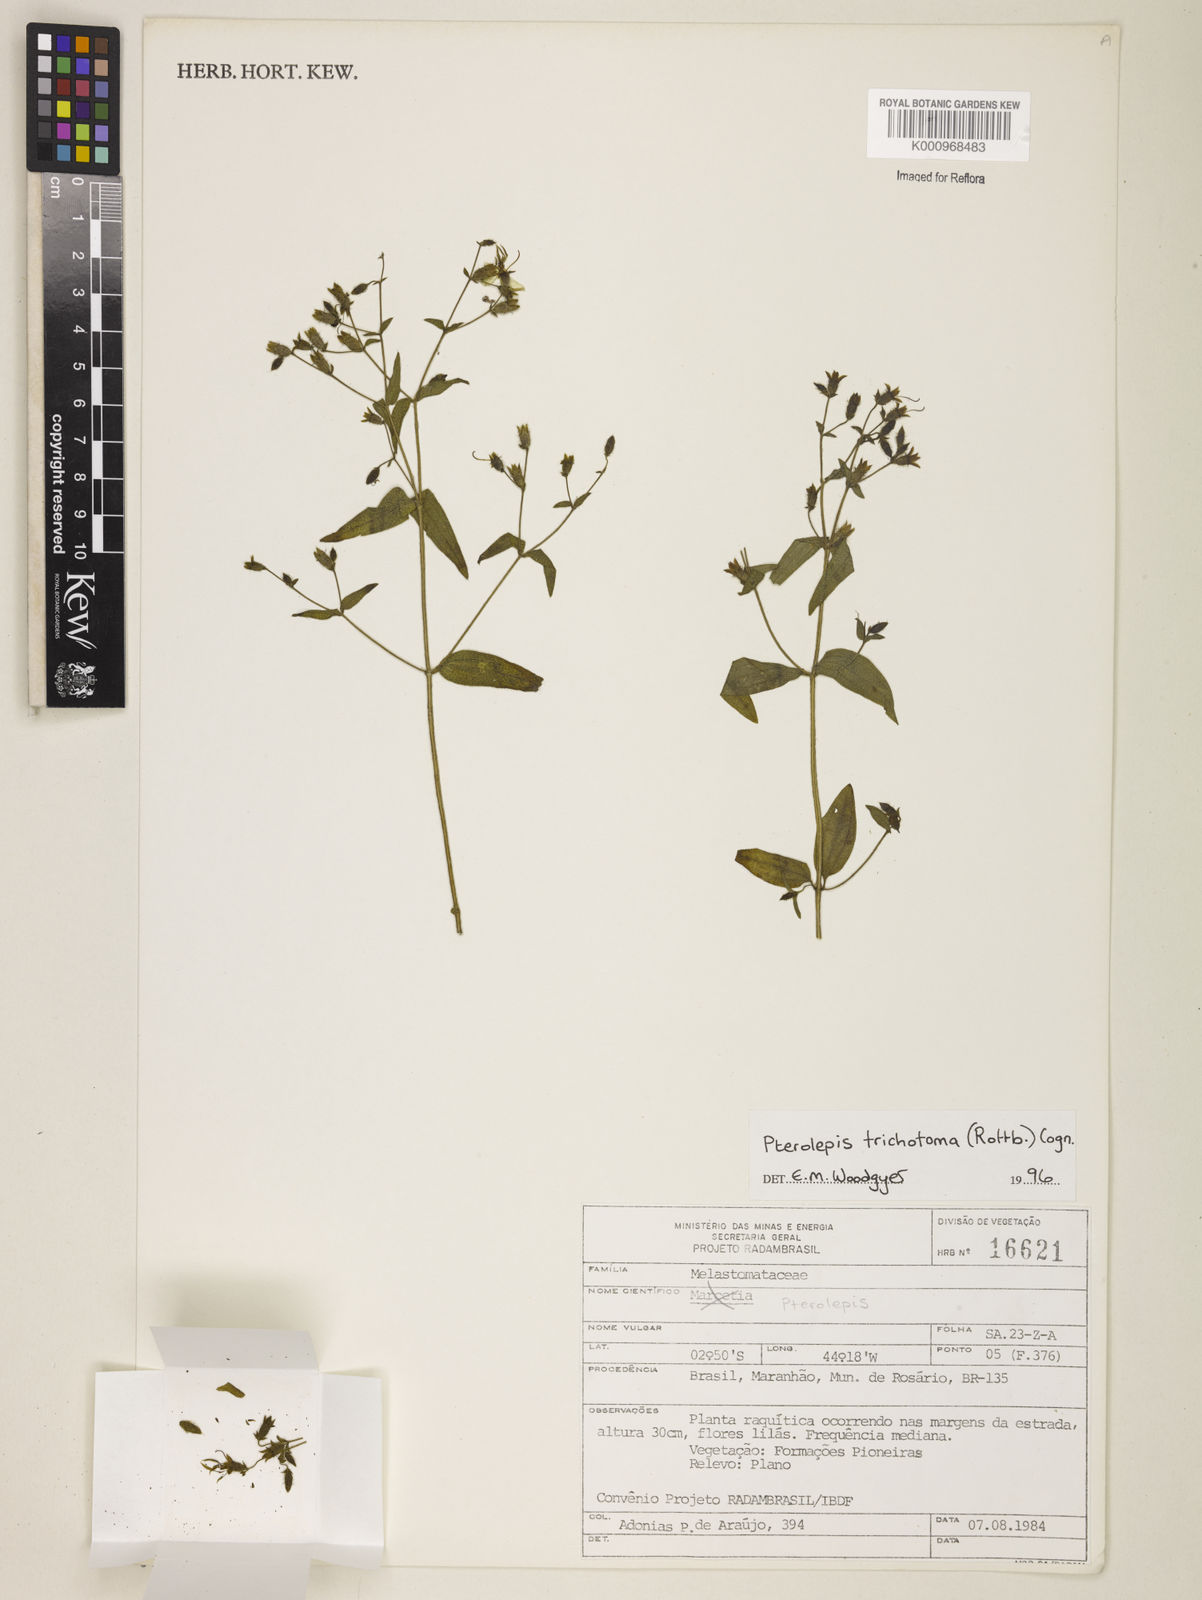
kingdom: Plantae
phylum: Tracheophyta
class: Magnoliopsida
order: Myrtales
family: Melastomataceae
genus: Pterolepis
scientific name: Pterolepis trichotoma
